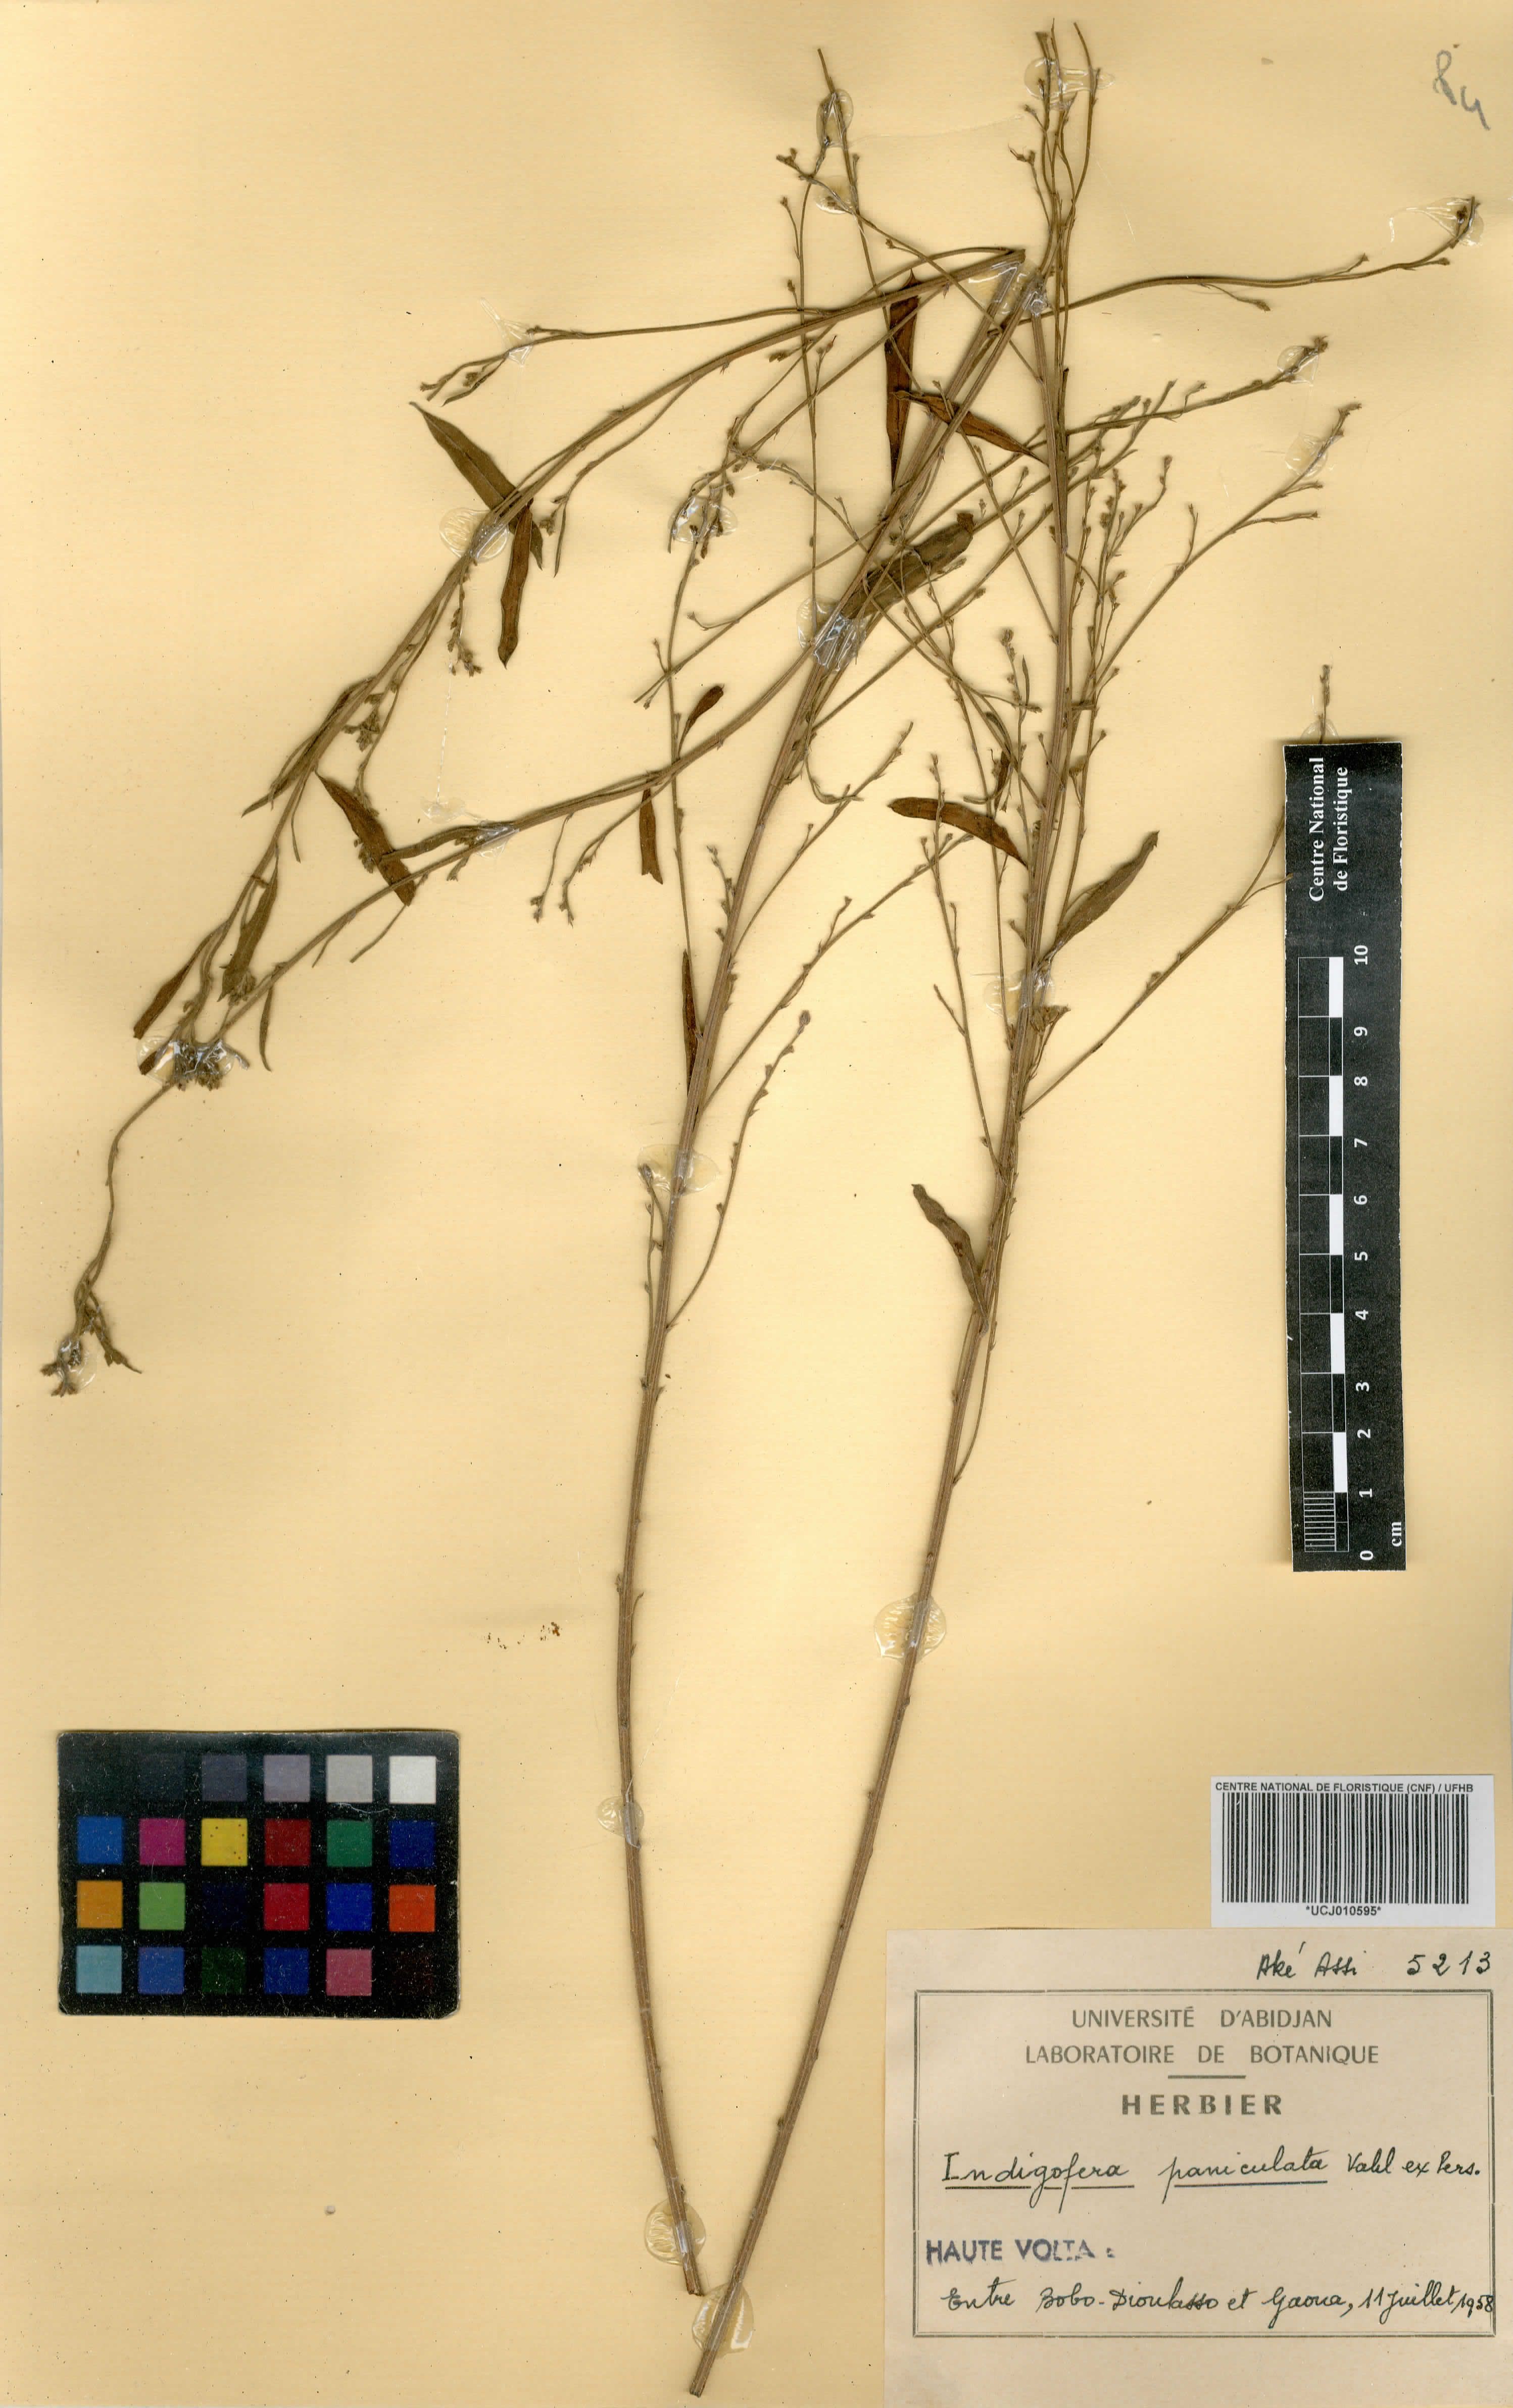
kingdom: Plantae
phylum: Tracheophyta
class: Magnoliopsida
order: Fabales
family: Fabaceae
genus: Indigofera
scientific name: Indigofera paniculata
